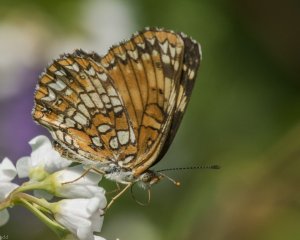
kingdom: Animalia
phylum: Arthropoda
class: Insecta
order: Lepidoptera
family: Nymphalidae
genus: Chlosyne
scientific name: Chlosyne harrisii
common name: Harris's Checkerspot
